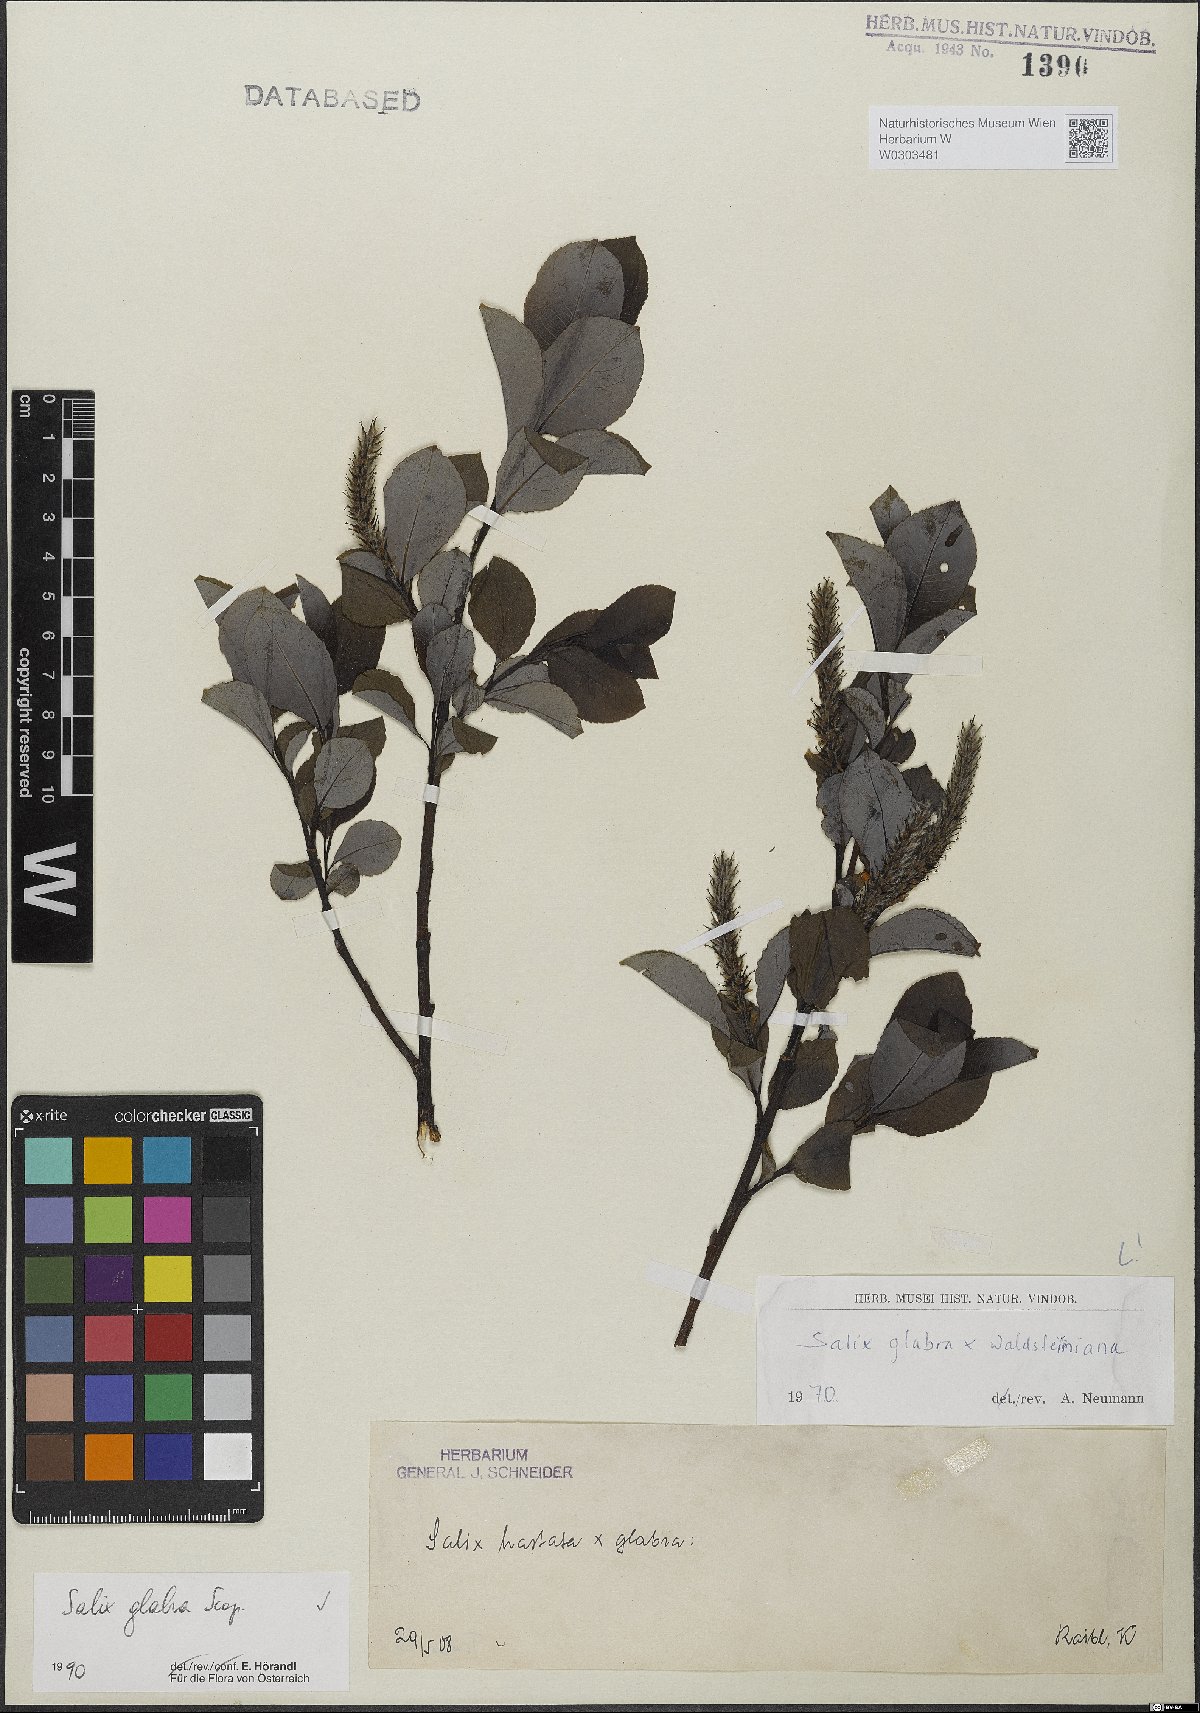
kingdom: Plantae
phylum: Tracheophyta
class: Magnoliopsida
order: Malpighiales
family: Salicaceae
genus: Salix
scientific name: Salix glabra
